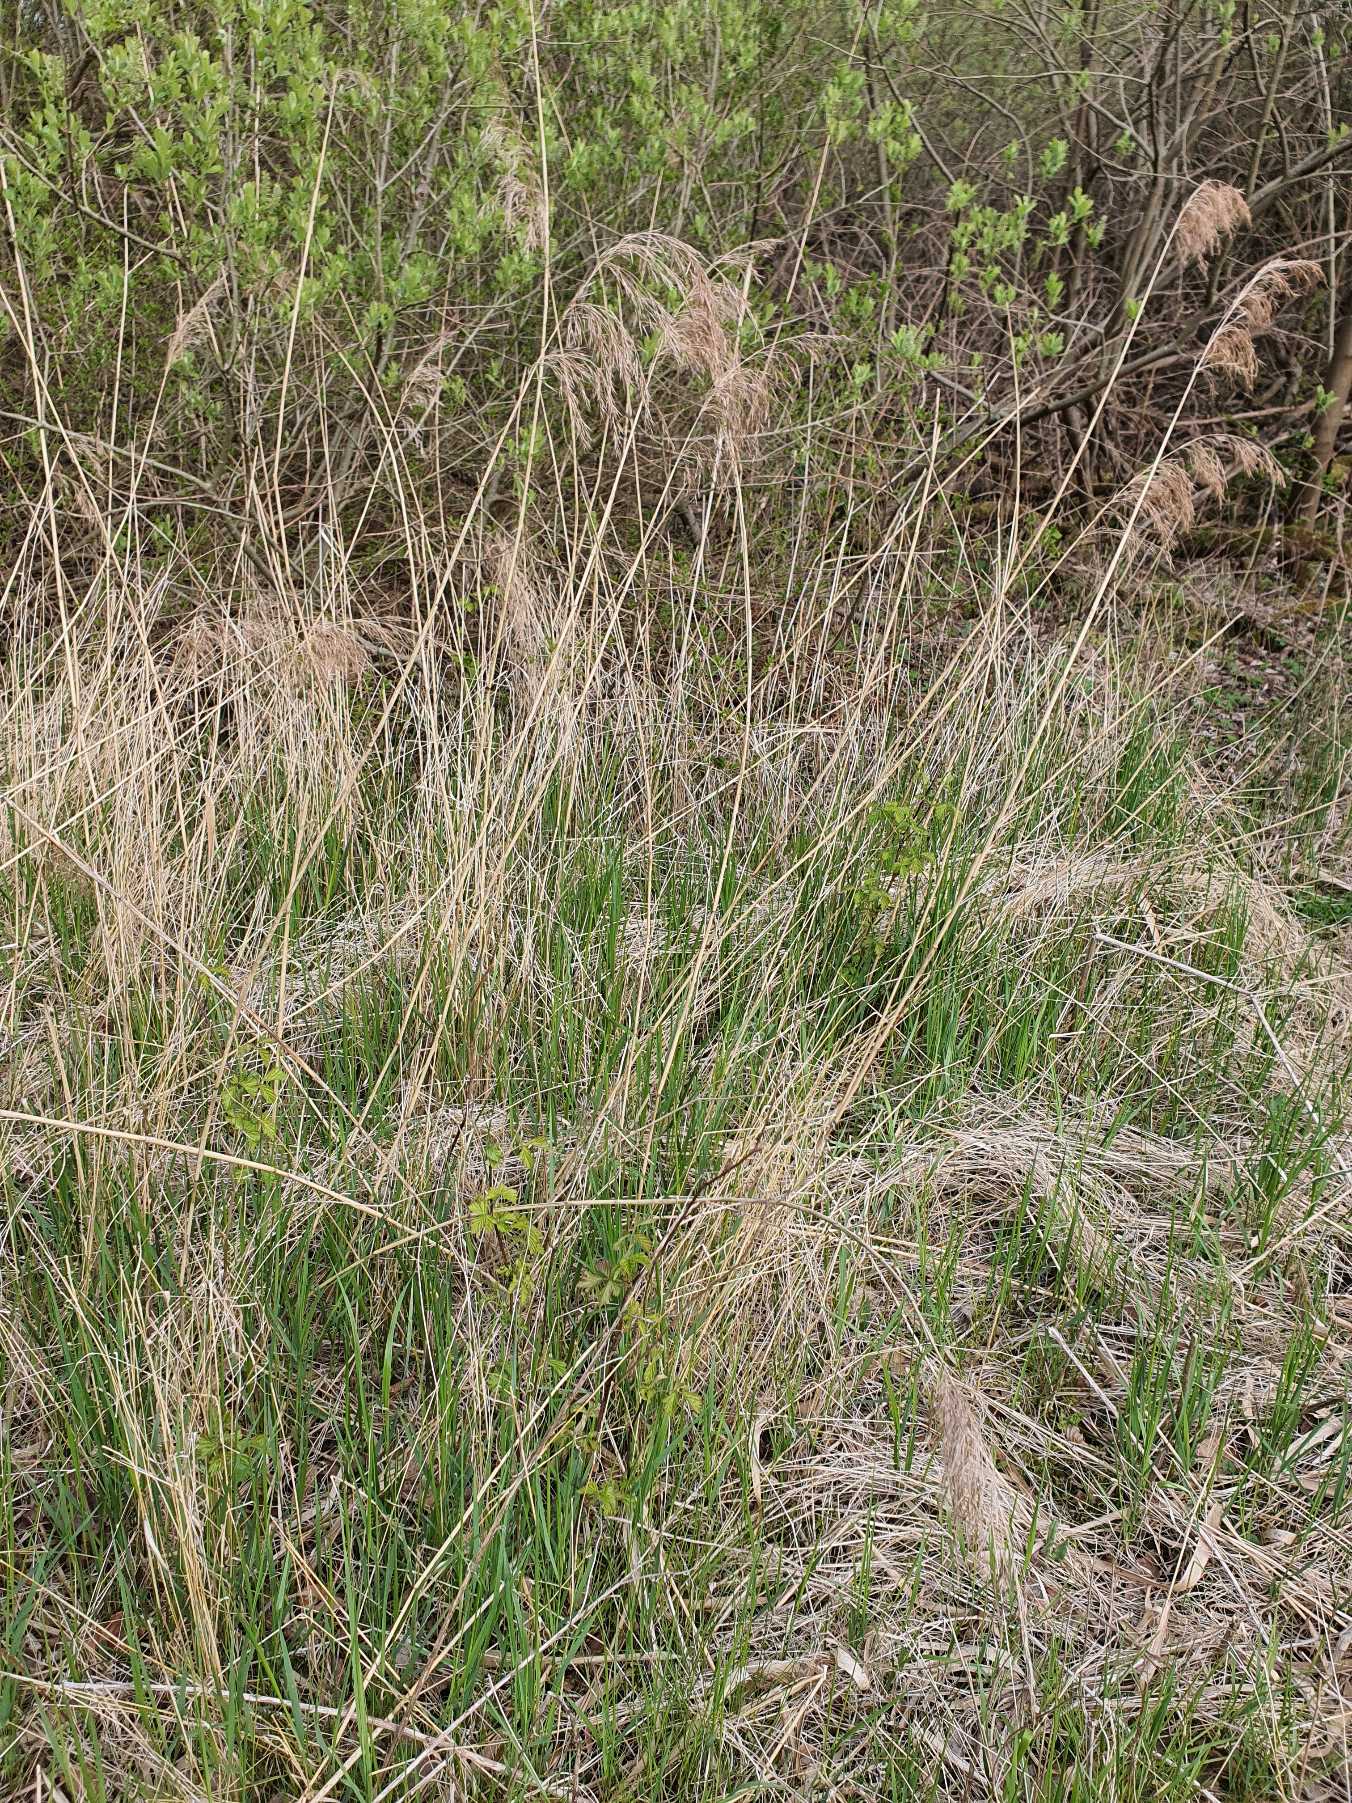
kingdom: Plantae
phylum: Tracheophyta
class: Liliopsida
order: Poales
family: Poaceae
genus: Phragmites
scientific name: Phragmites australis
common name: Tagrør
